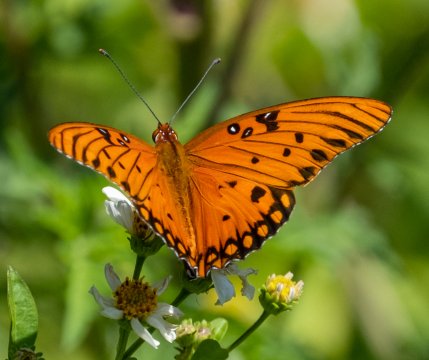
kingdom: Animalia
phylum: Arthropoda
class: Insecta
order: Lepidoptera
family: Nymphalidae
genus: Dione
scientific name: Dione vanillae
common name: Gulf Fritillary
